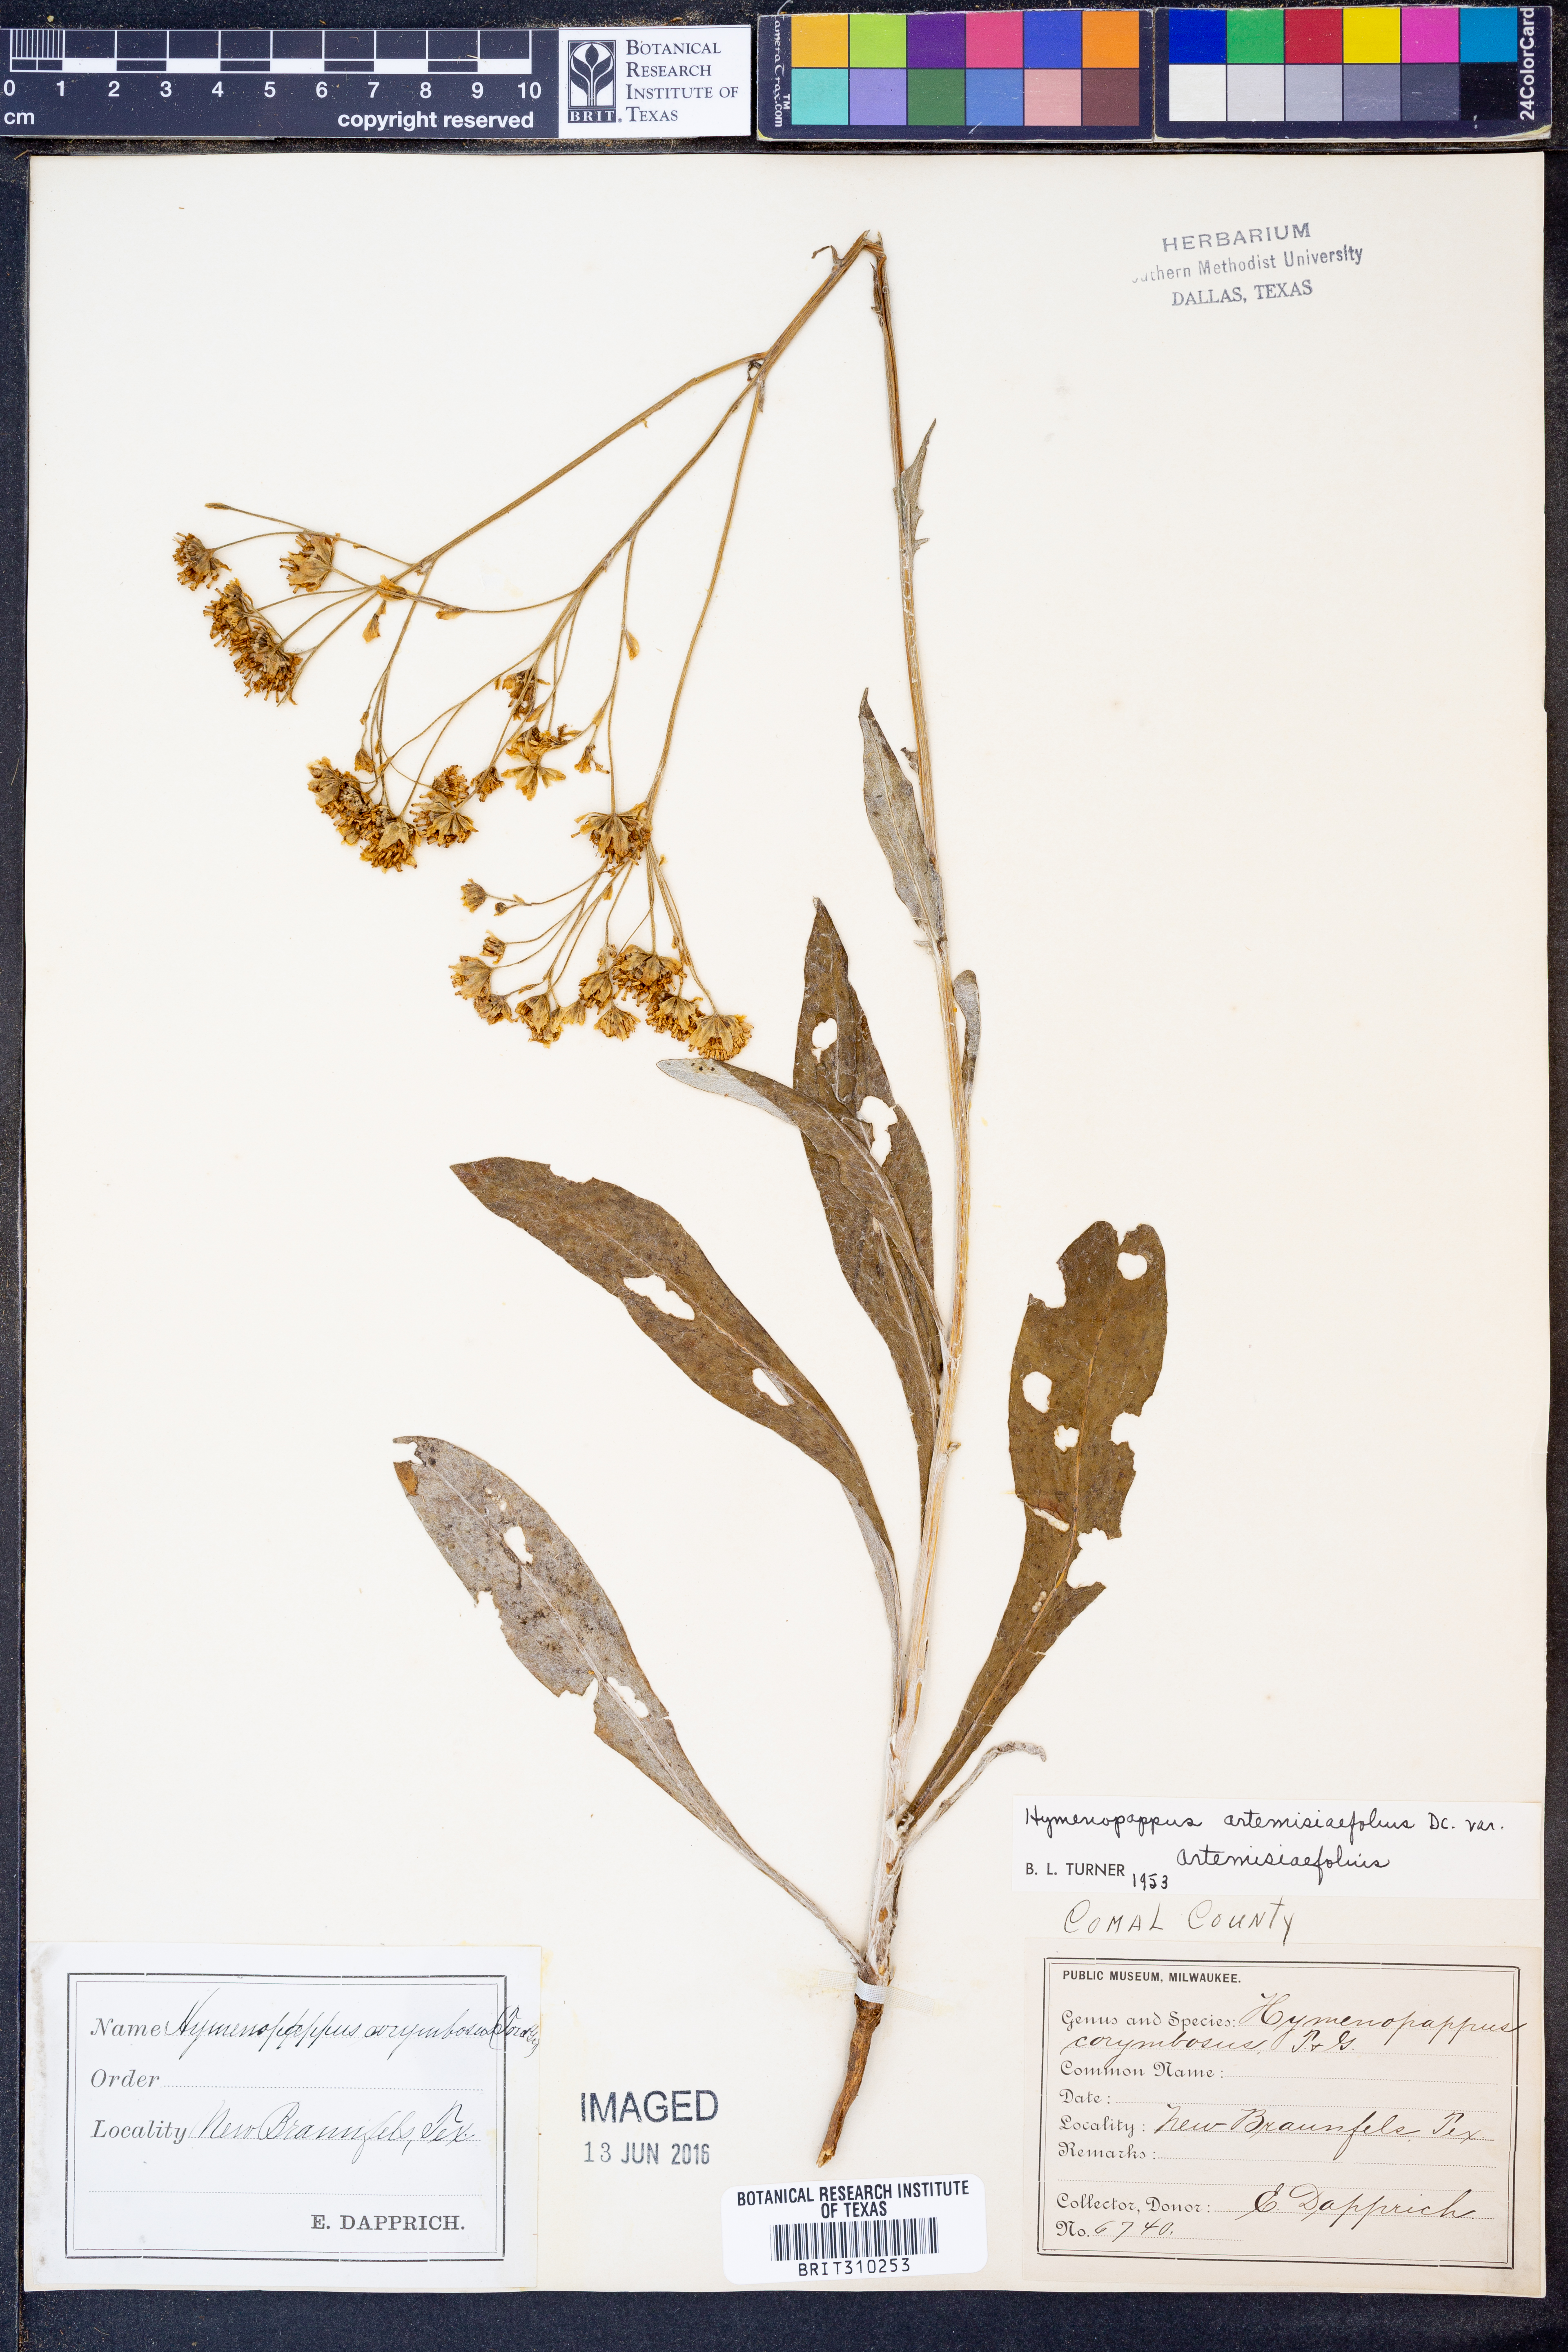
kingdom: Plantae
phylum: Tracheophyta
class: Magnoliopsida
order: Asterales
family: Asteraceae
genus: Hymenopappus
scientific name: Hymenopappus artemisiifolius
